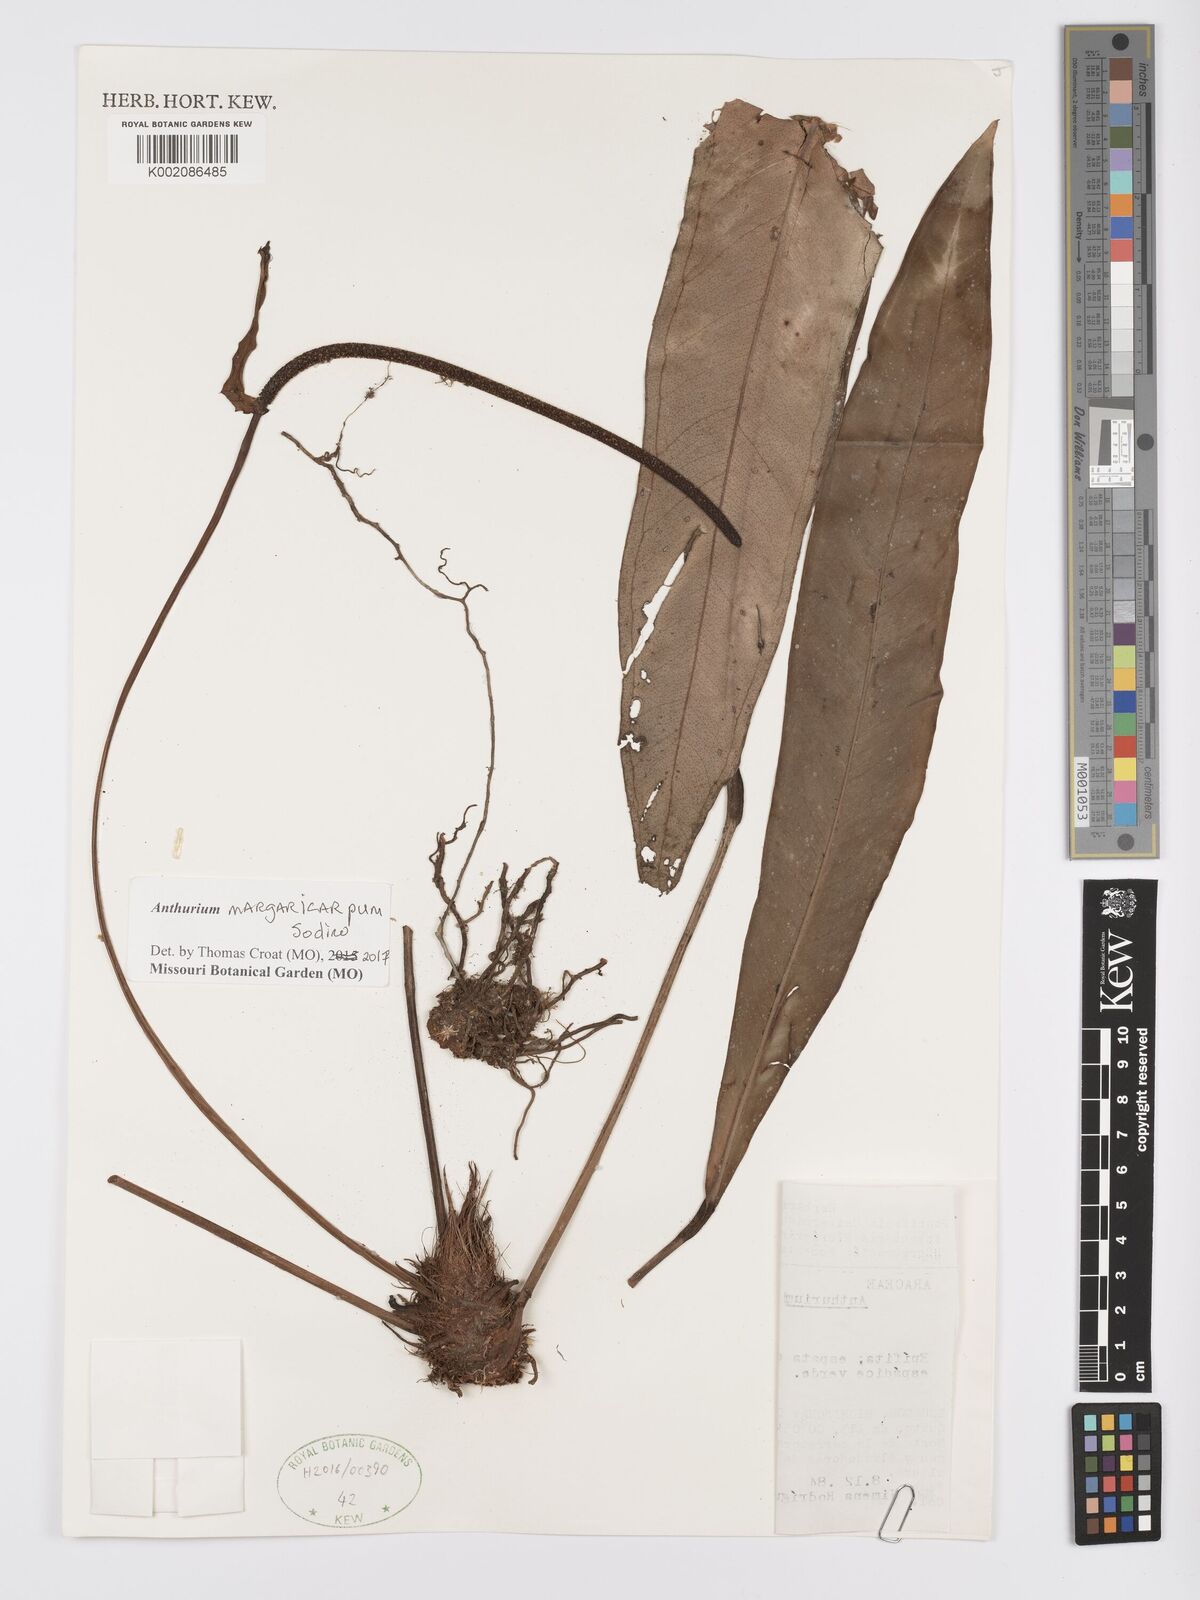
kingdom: Plantae
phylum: Tracheophyta
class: Liliopsida
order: Alismatales
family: Araceae
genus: Anthurium
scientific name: Anthurium margaricarpum
